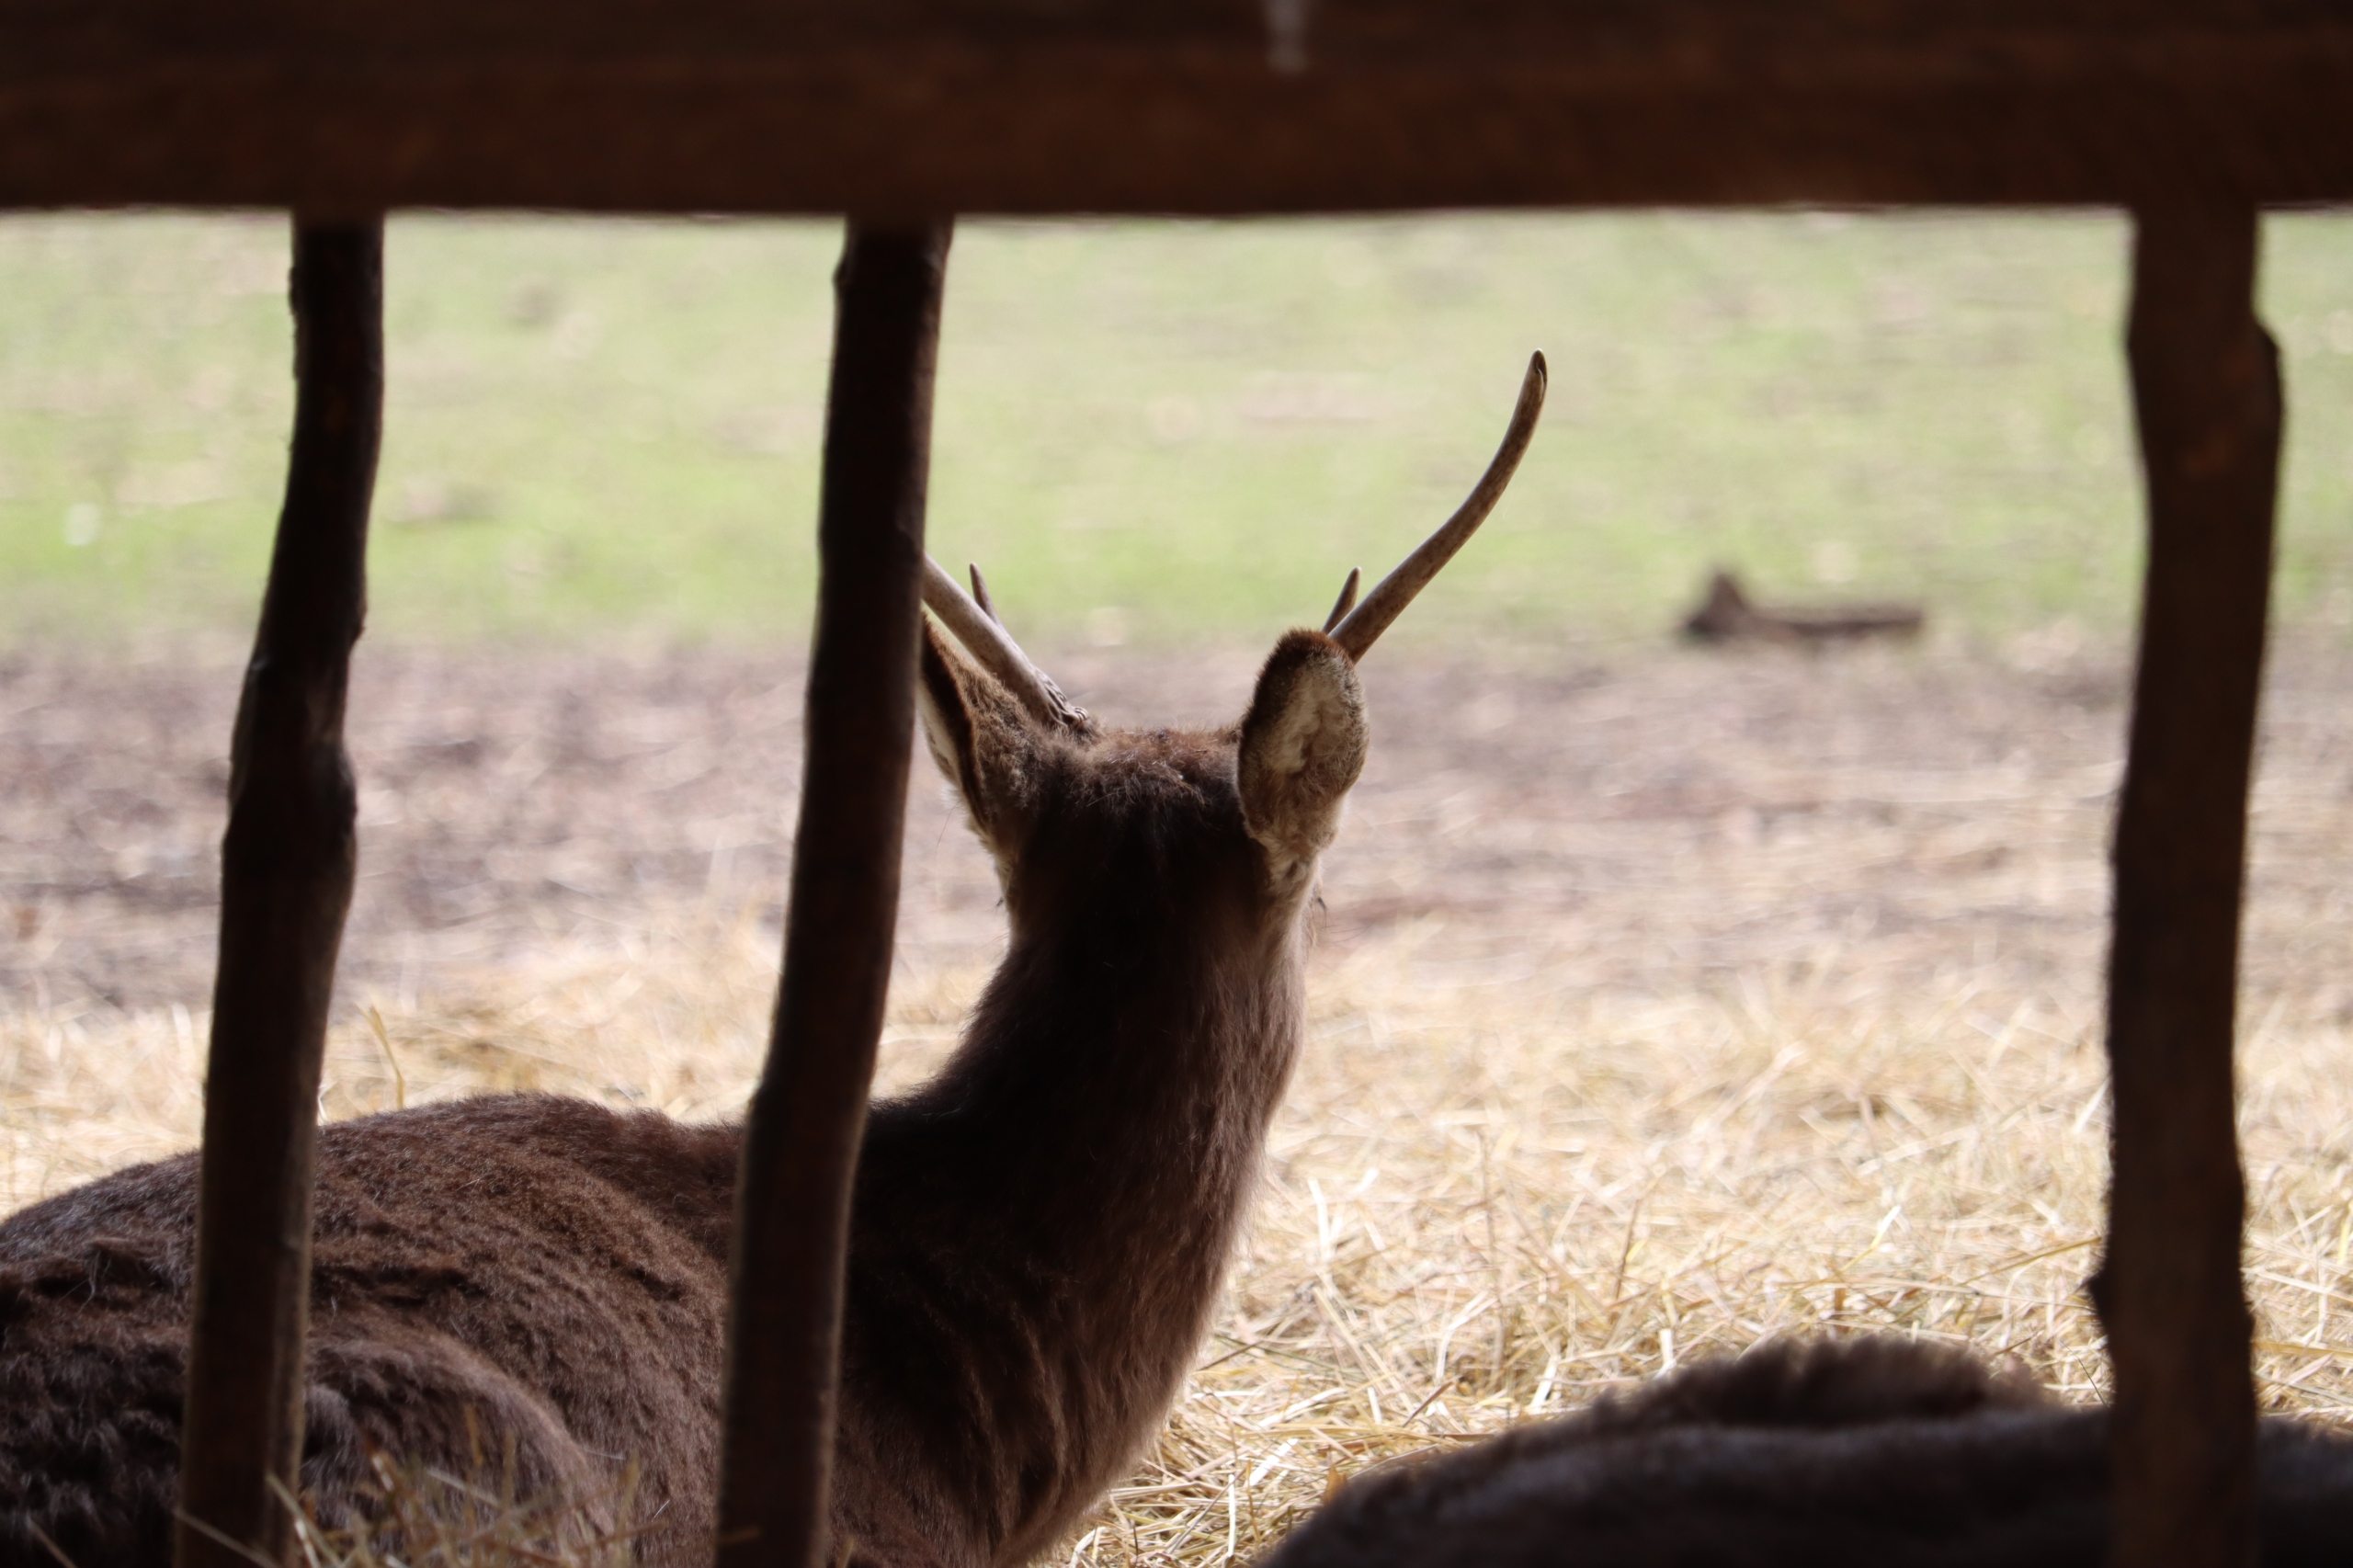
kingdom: Animalia
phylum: Chordata
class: Mammalia
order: Artiodactyla
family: Cervidae
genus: Cervus
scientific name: Cervus nippon
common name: Sika
